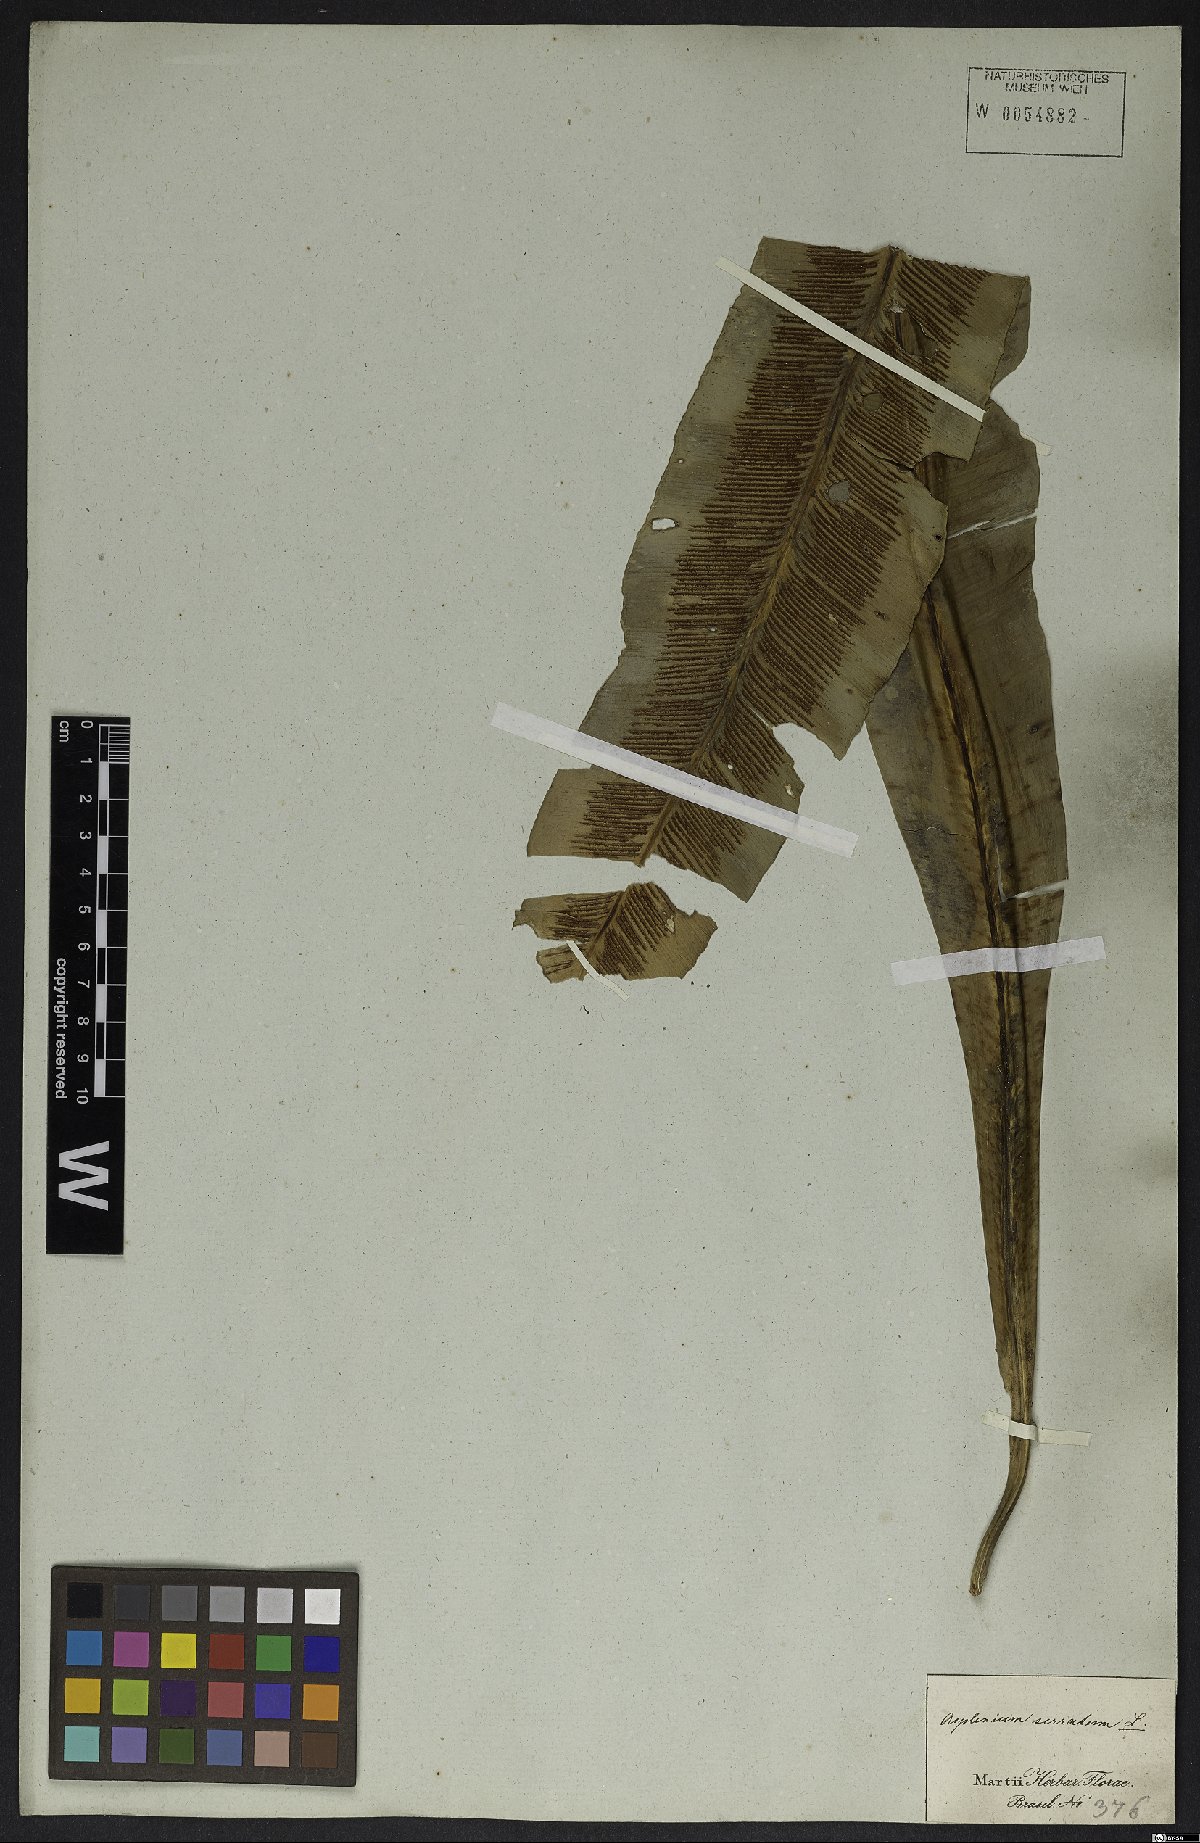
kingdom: Plantae
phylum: Tracheophyta
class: Polypodiopsida
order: Polypodiales
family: Aspleniaceae
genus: Asplenium
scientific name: Asplenium serratum
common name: Wild birdnest fern
